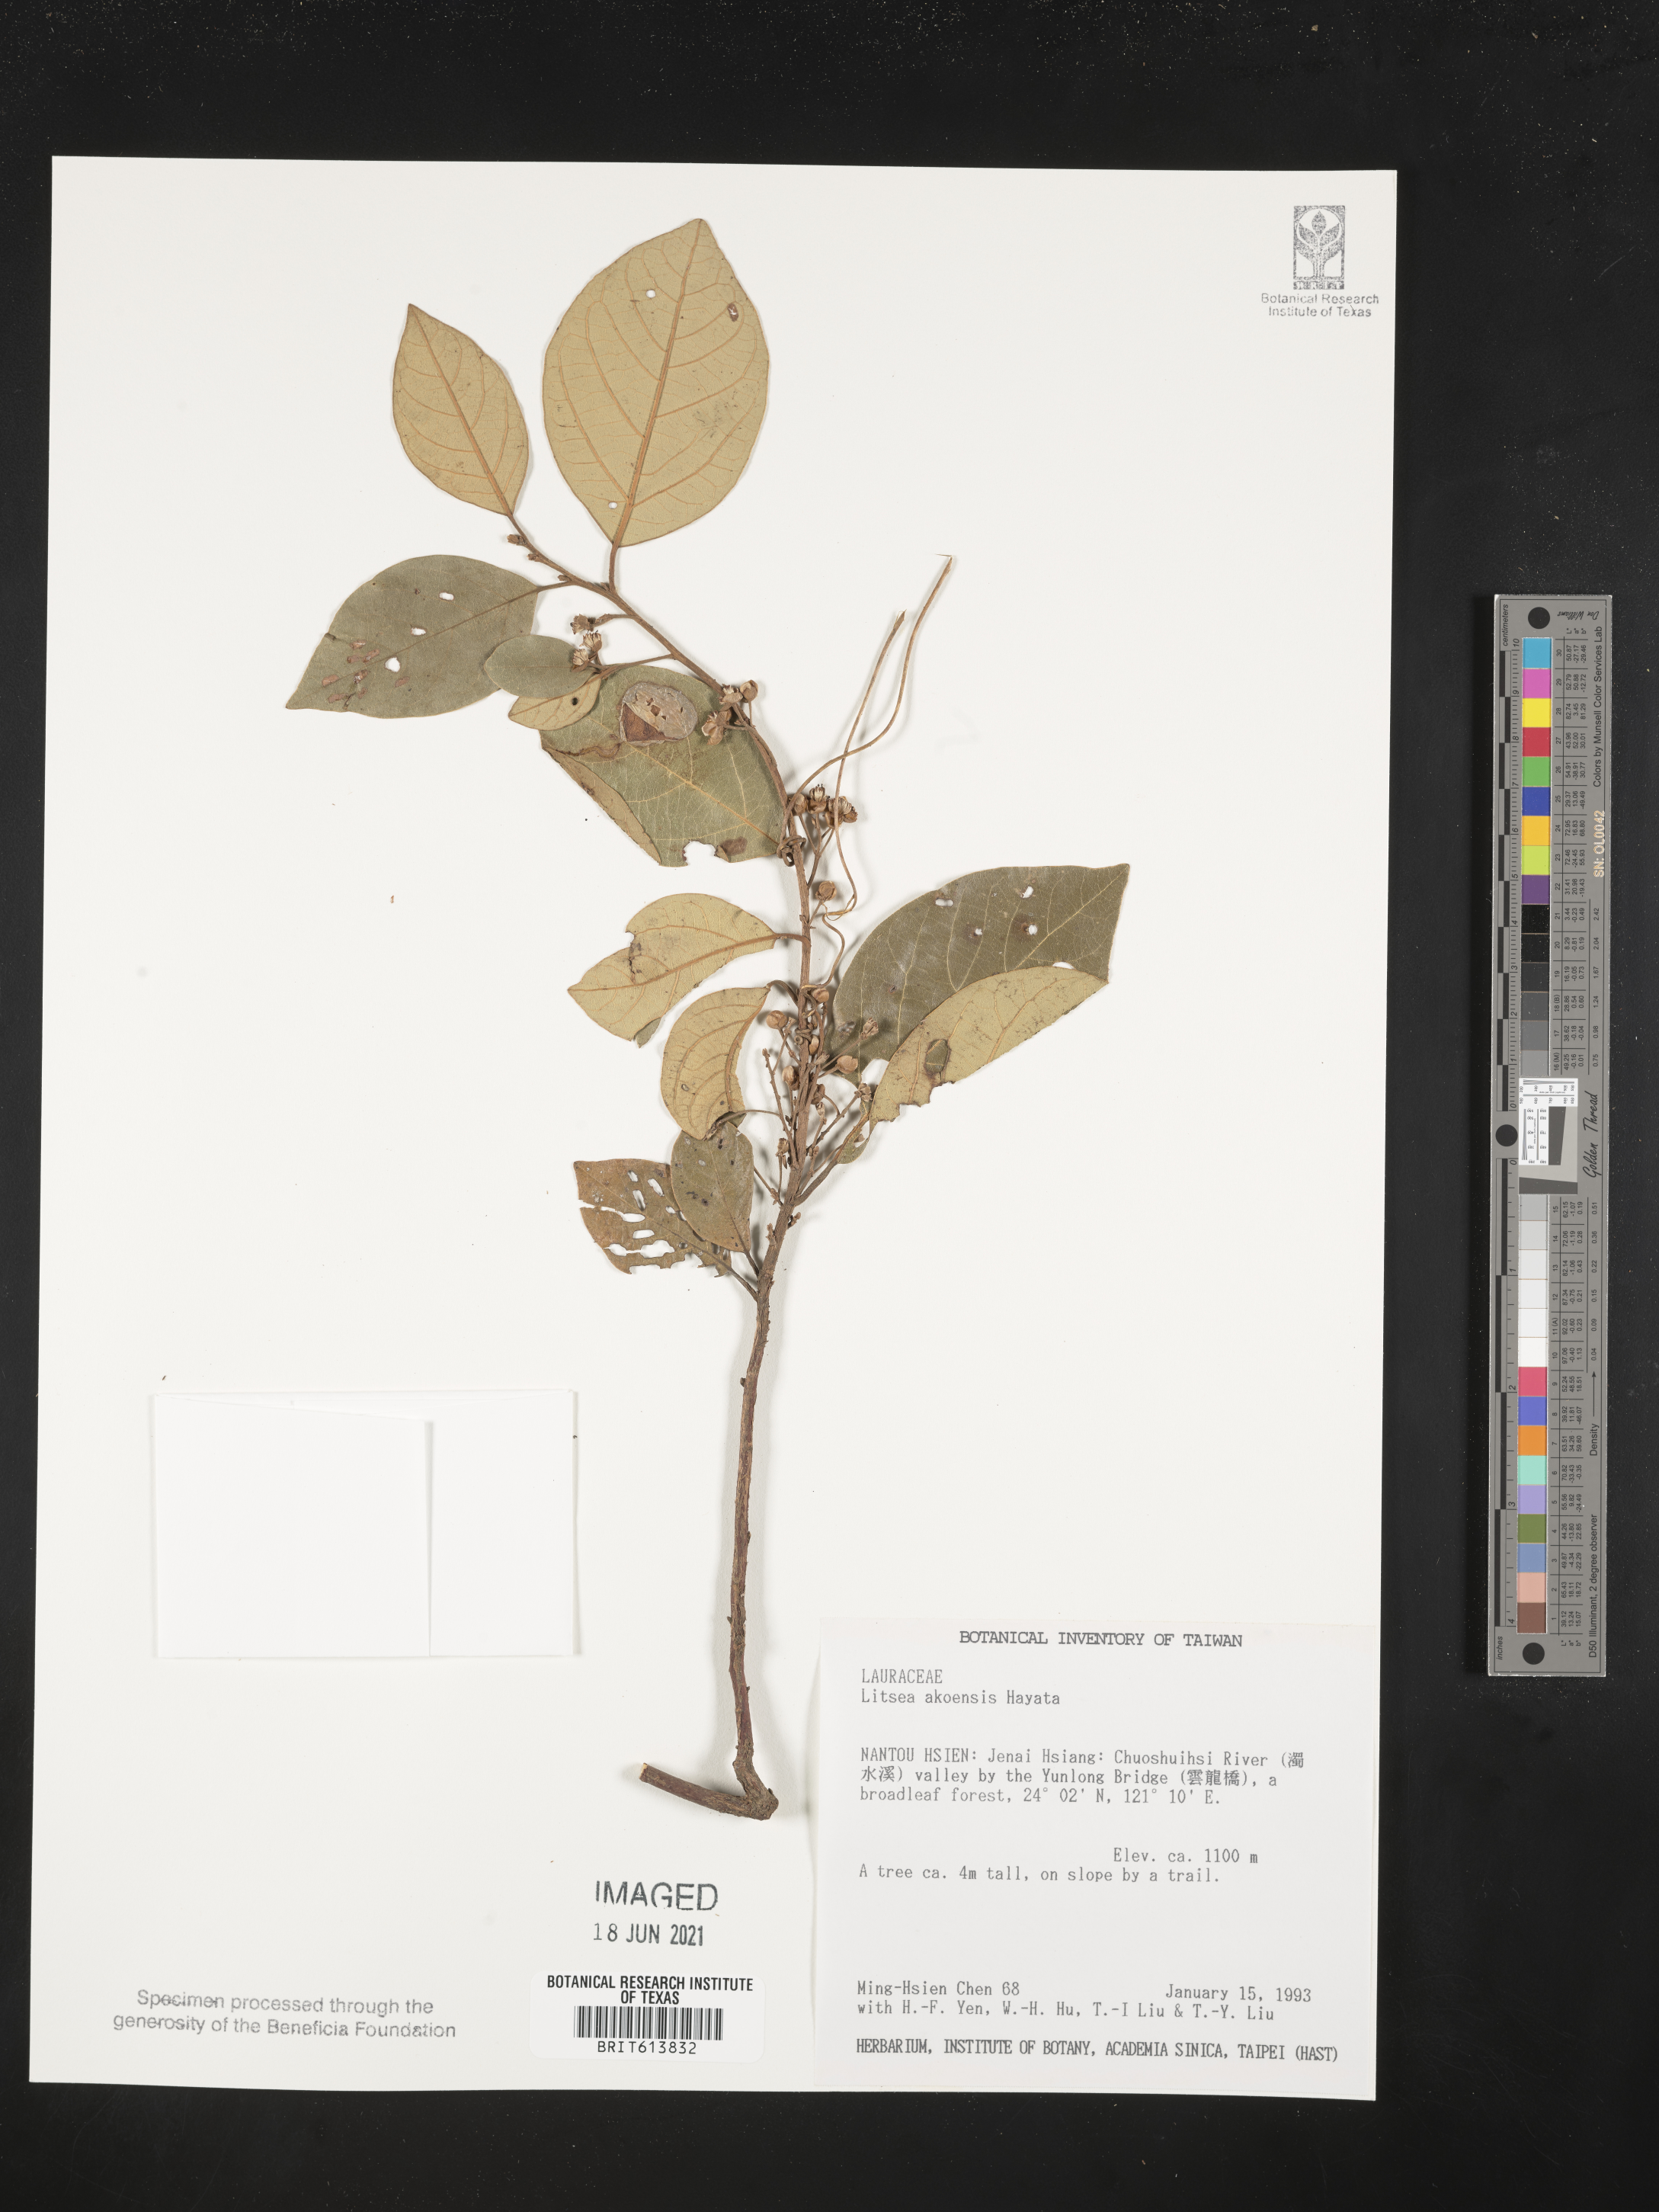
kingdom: Plantae
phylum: Tracheophyta
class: Magnoliopsida
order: Laurales
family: Lauraceae
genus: Litsea
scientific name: Litsea akoensis
